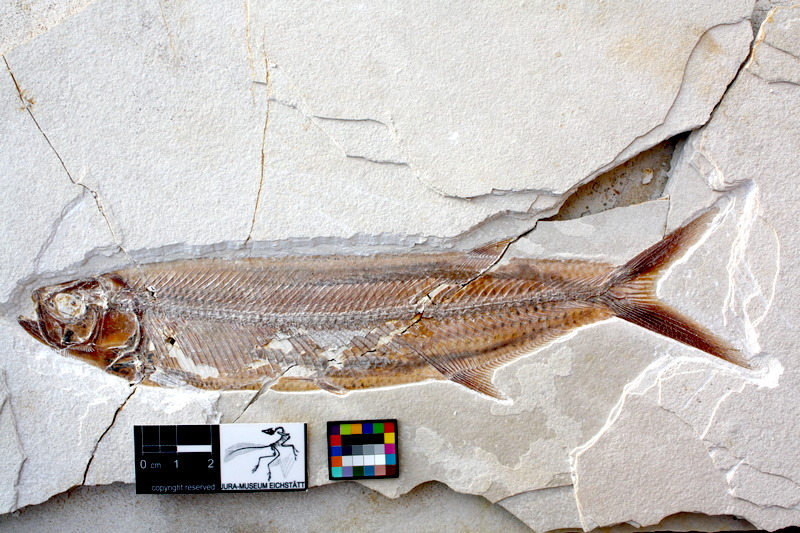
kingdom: Animalia
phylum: Chordata
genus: Thrissops
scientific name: Thrissops formosus
